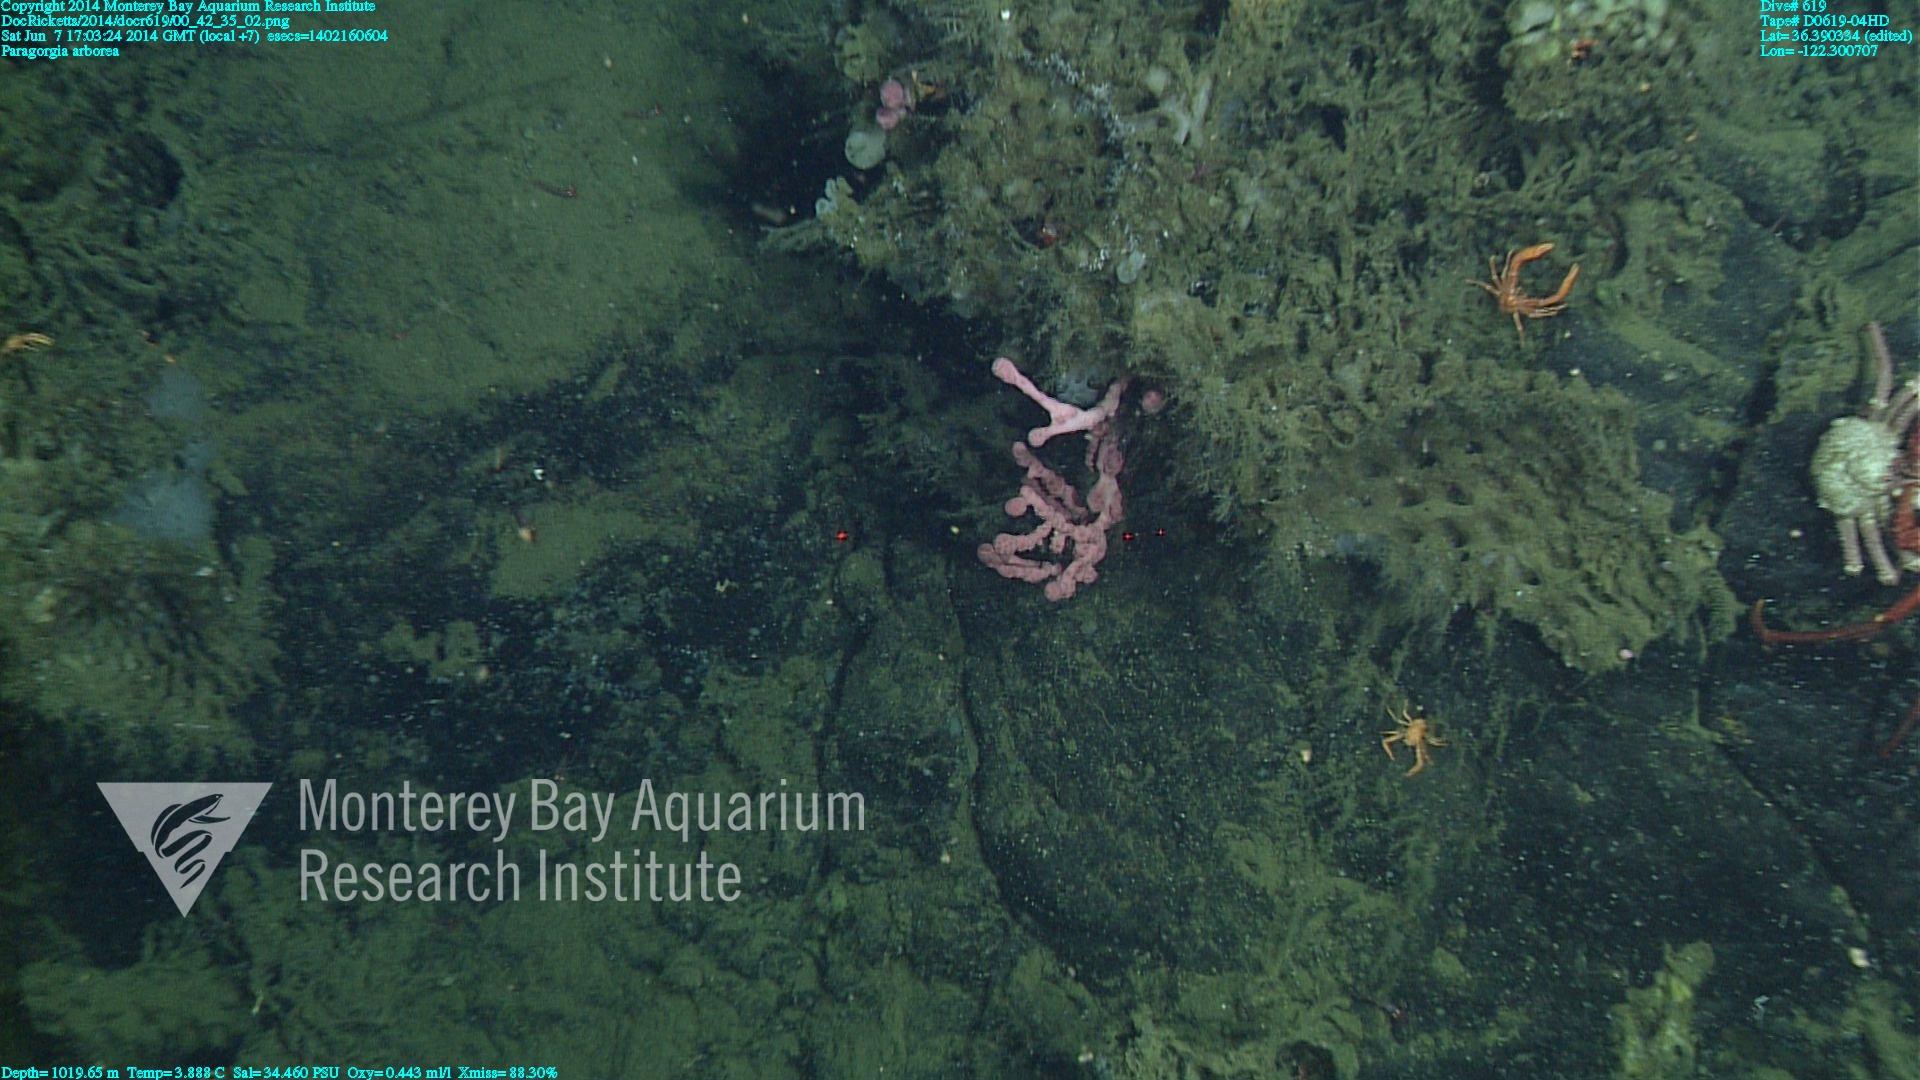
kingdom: Animalia
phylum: Cnidaria
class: Anthozoa
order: Scleralcyonacea
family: Coralliidae
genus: Paragorgia
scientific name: Paragorgia arborea
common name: Bubble gum coral
